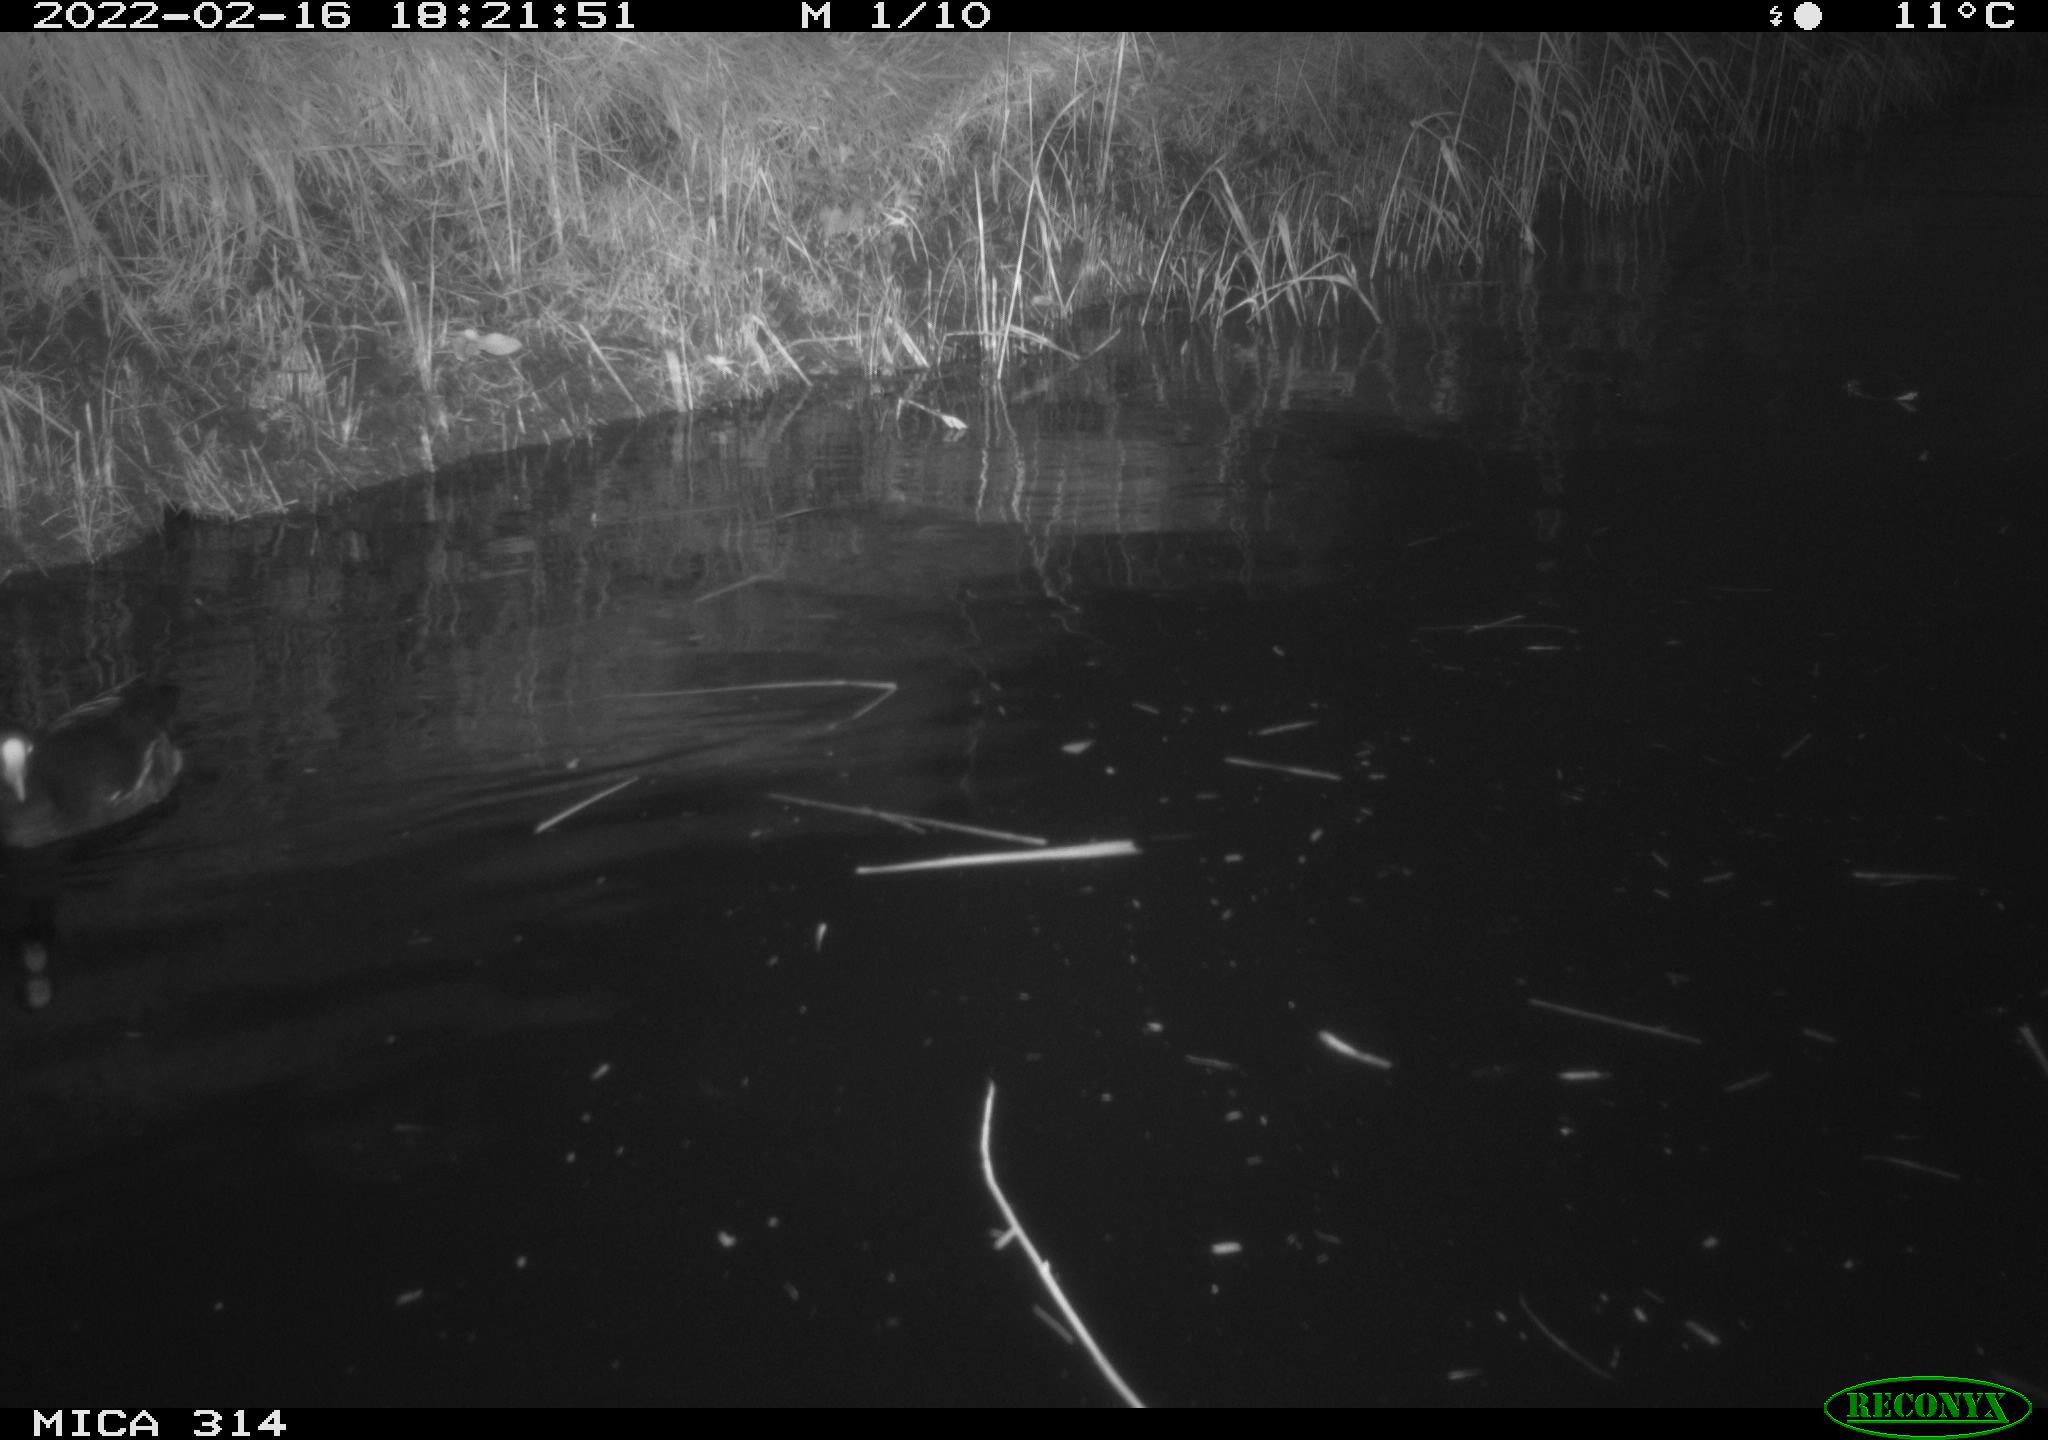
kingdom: Animalia
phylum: Chordata
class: Aves
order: Gruiformes
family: Rallidae
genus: Gallinula
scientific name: Gallinula chloropus
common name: Common moorhen
